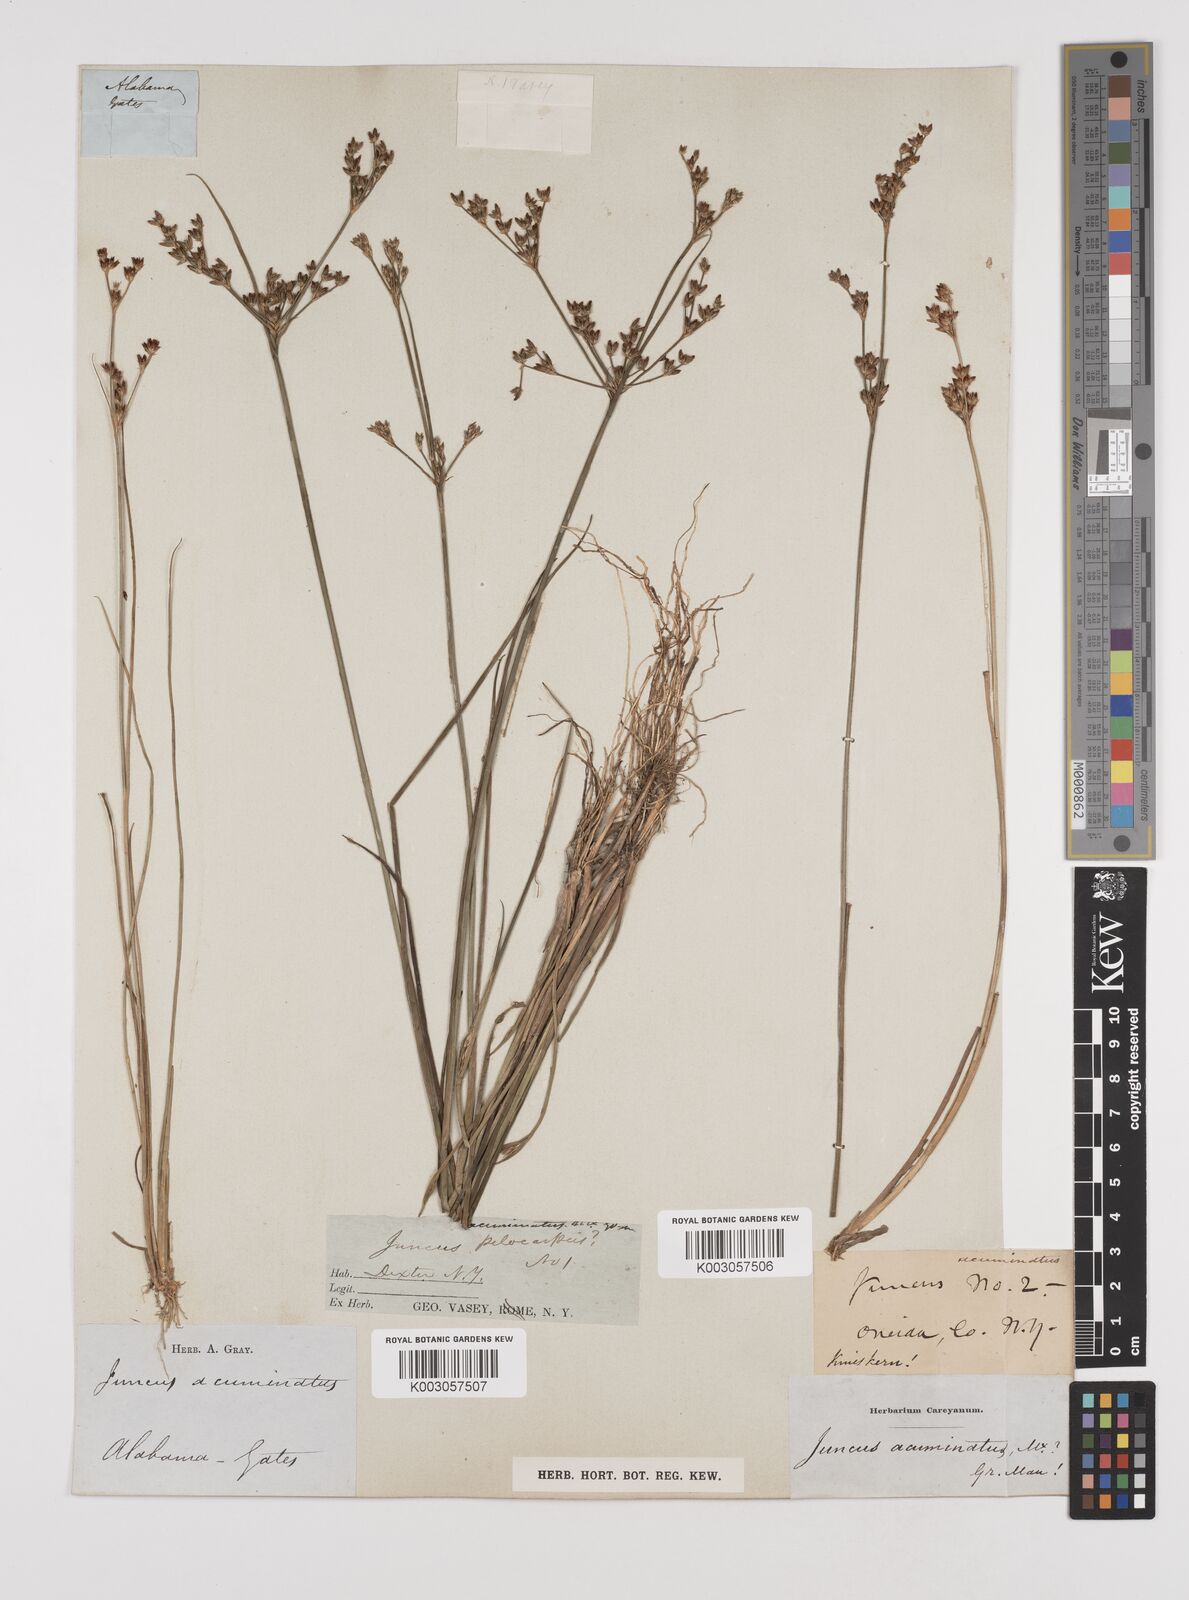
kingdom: Plantae
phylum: Tracheophyta
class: Liliopsida
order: Poales
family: Juncaceae
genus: Juncus
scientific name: Juncus debilis
